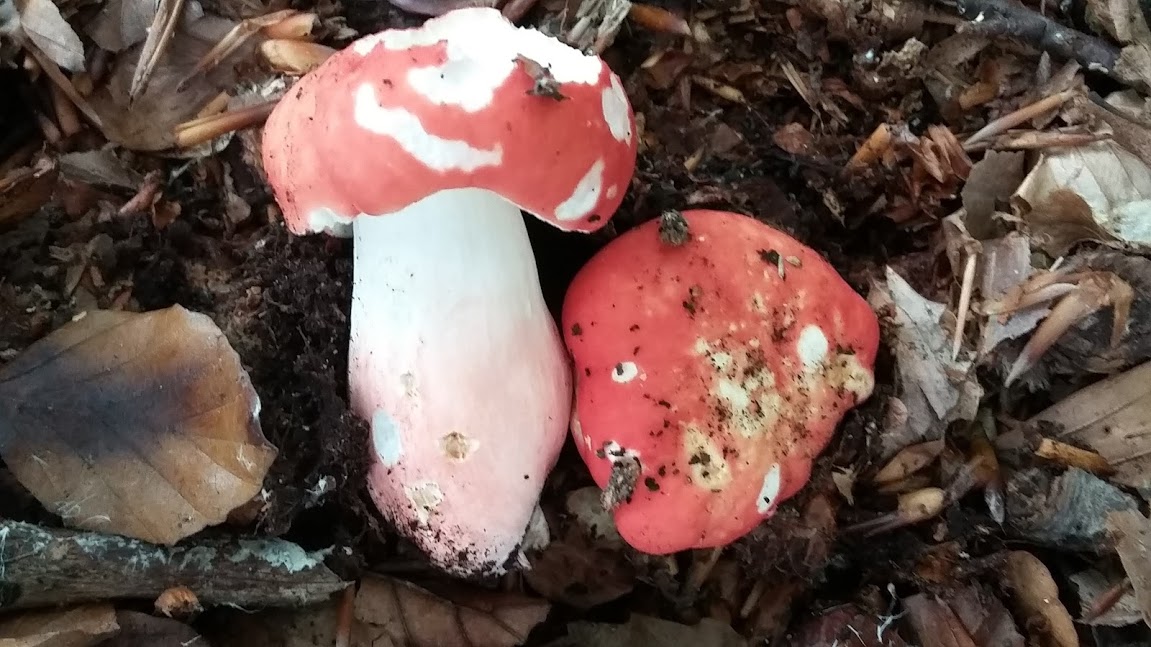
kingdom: Fungi
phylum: Basidiomycota
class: Agaricomycetes
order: Russulales
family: Russulaceae
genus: Russula
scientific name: Russula rosea
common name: fastkødet skørhat
